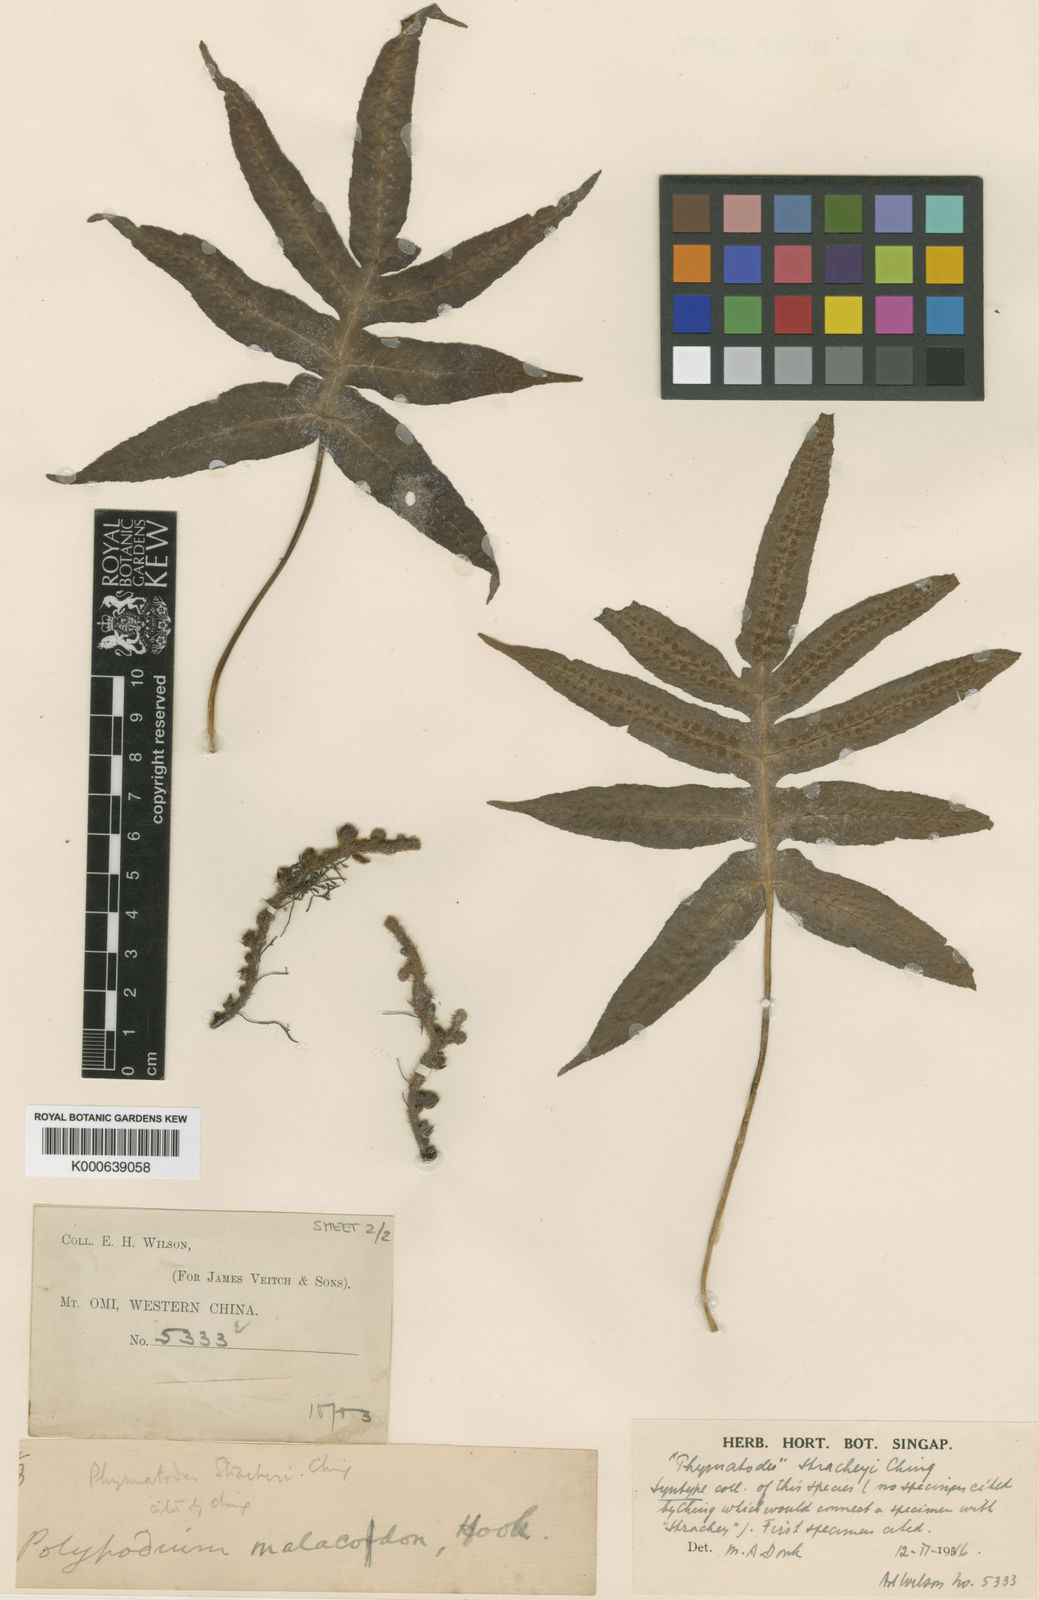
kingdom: Plantae
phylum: Tracheophyta
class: Polypodiopsida
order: Polypodiales
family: Polypodiaceae
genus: Selliguea
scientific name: Selliguea quasidivaricata
